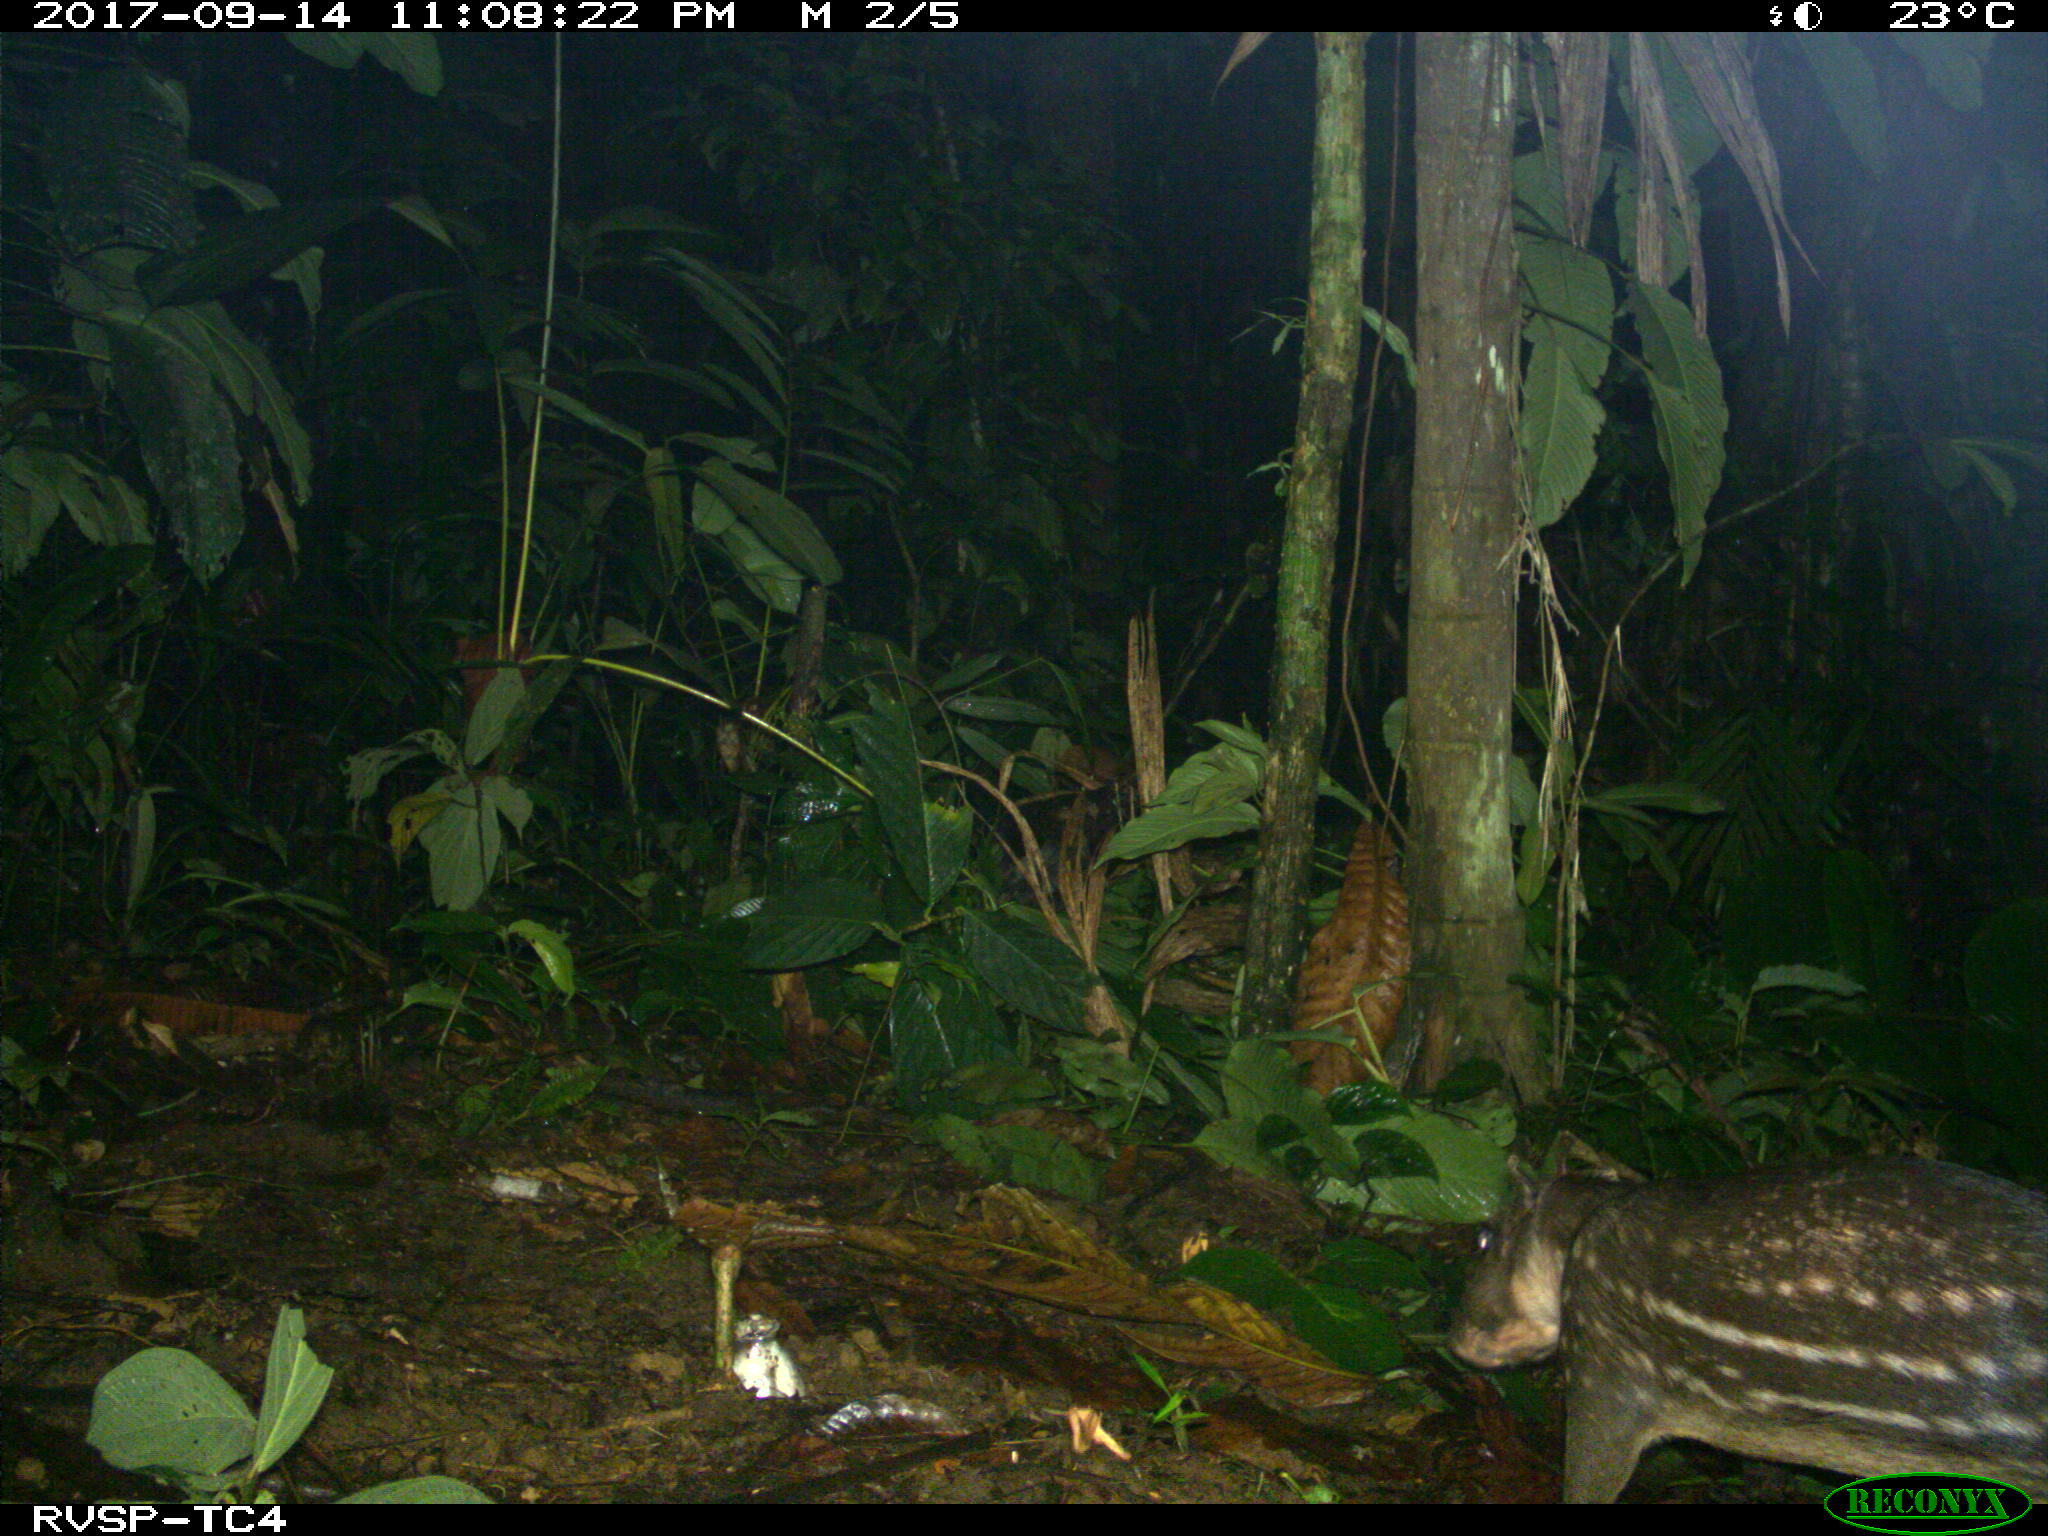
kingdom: Animalia
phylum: Chordata
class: Mammalia
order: Rodentia
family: Cuniculidae
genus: Cuniculus
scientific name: Cuniculus paca
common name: Lowland paca
